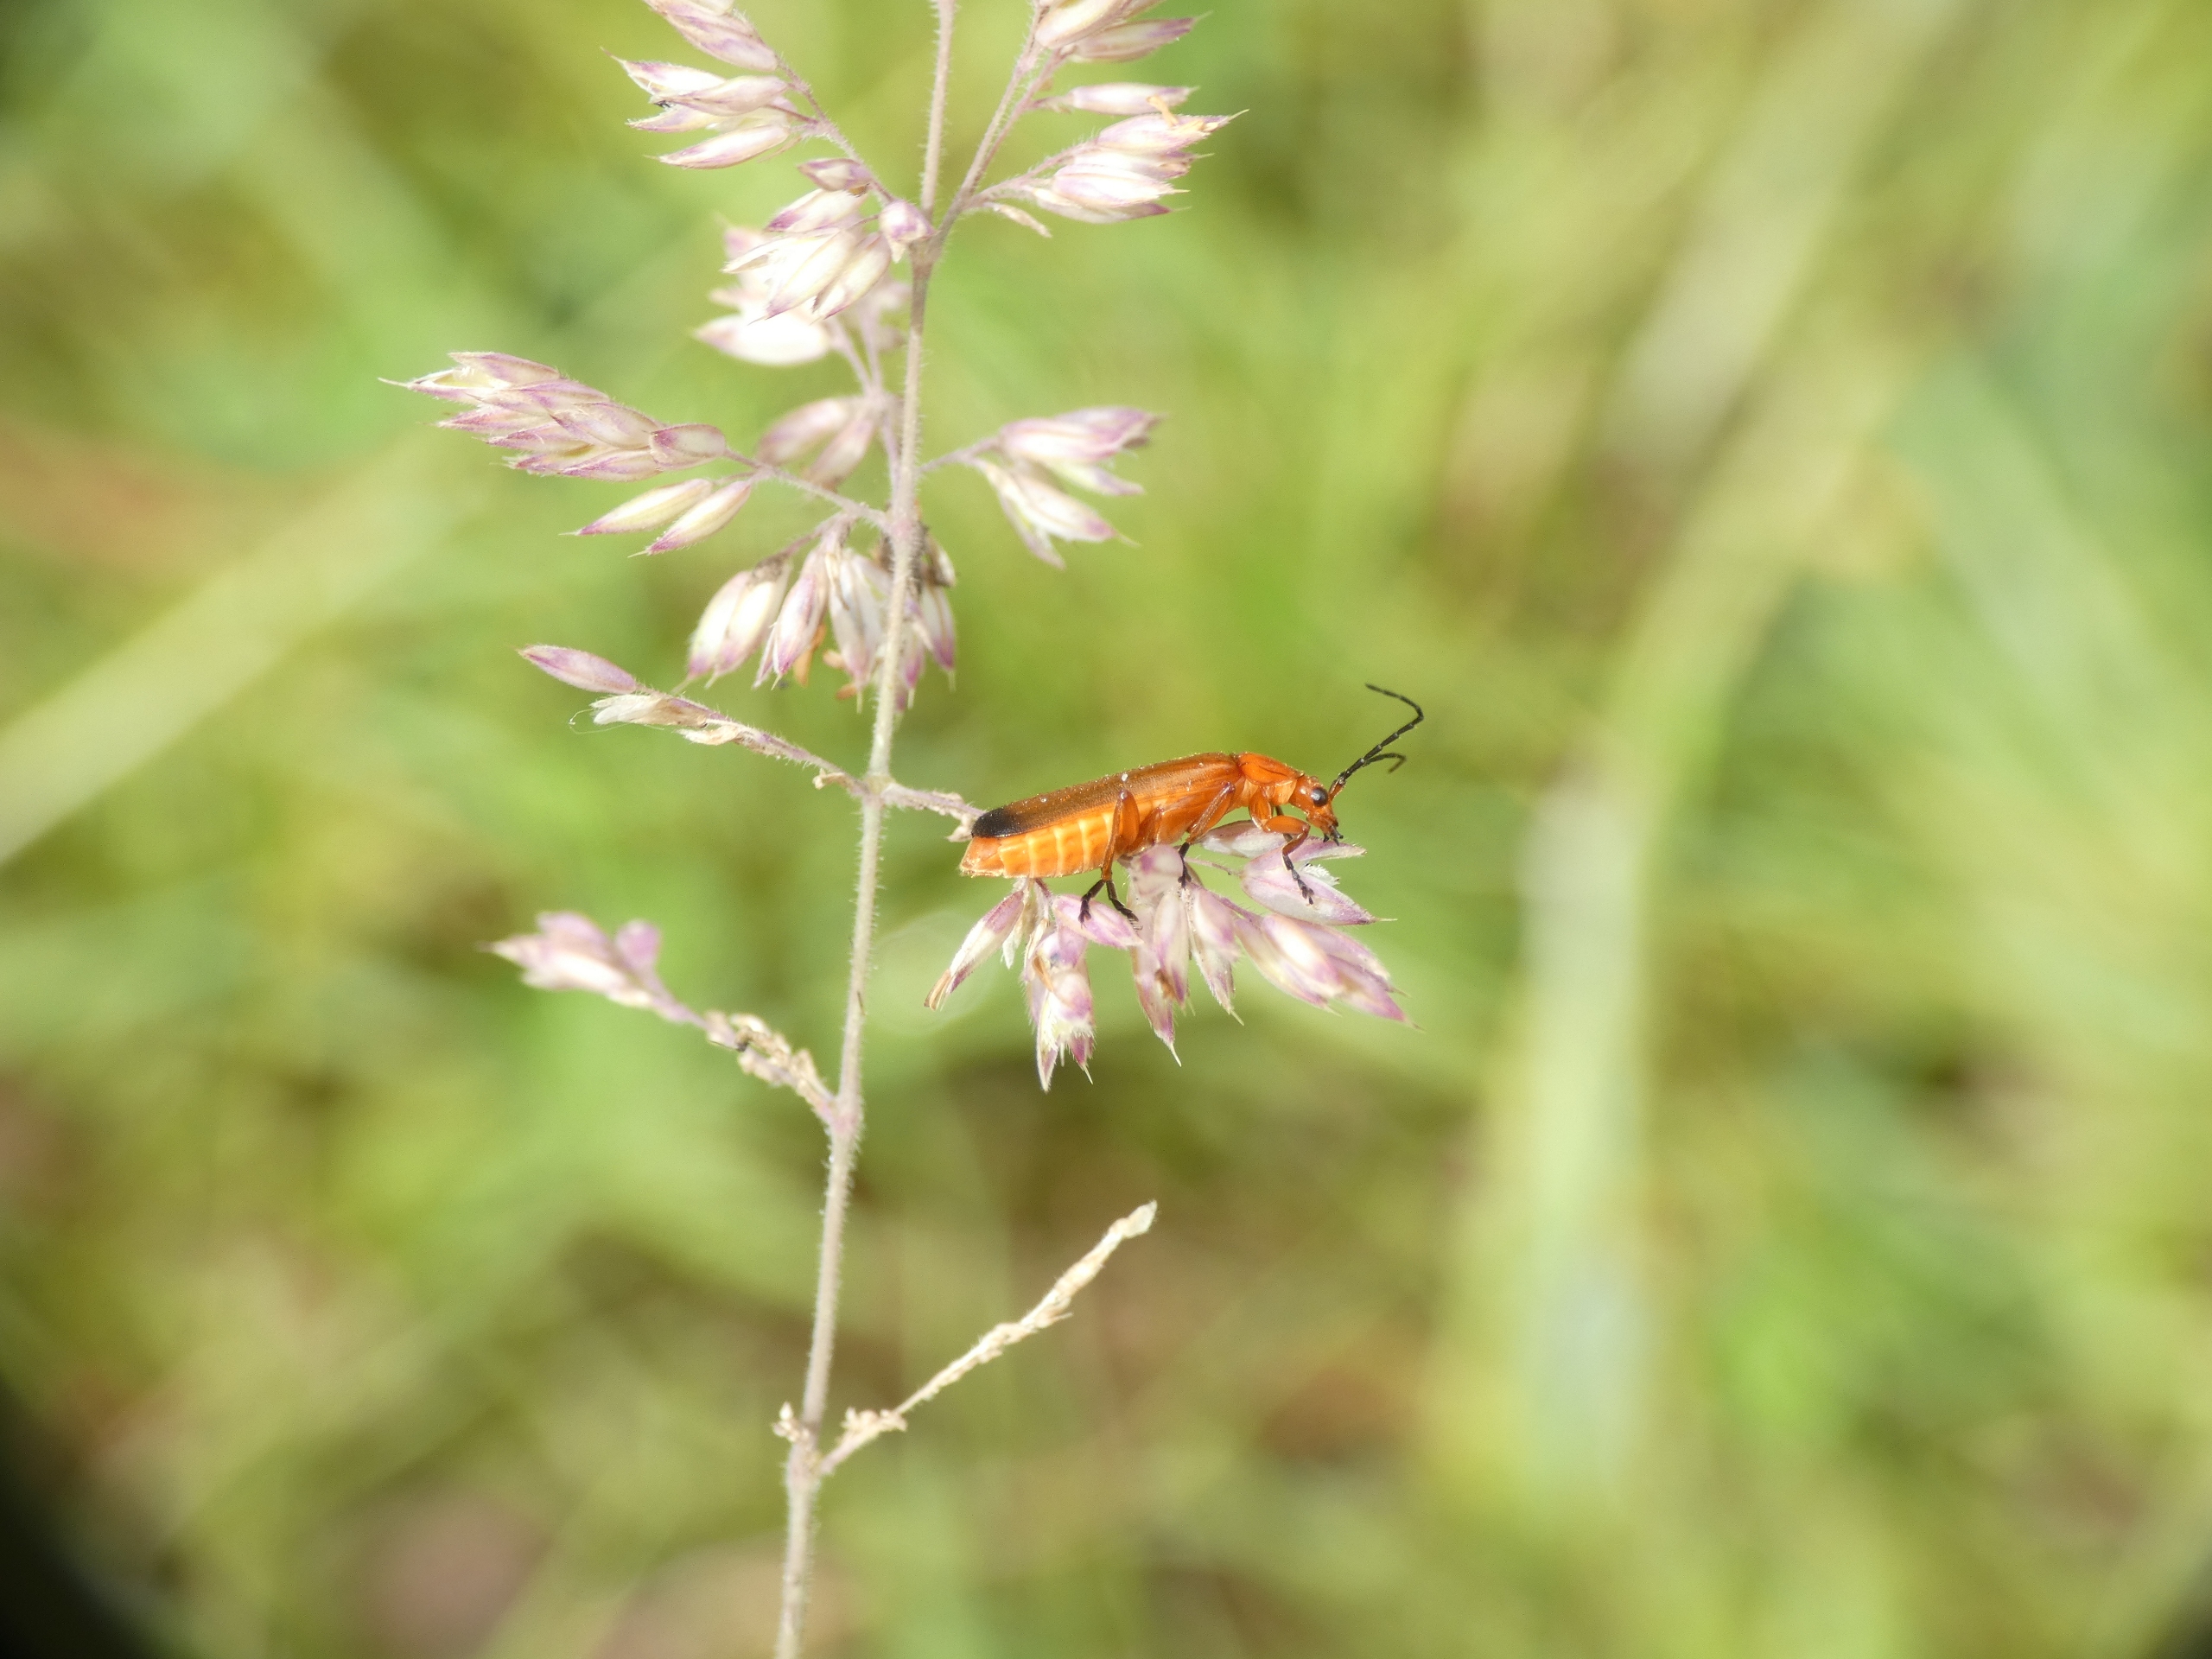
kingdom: Animalia
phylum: Arthropoda
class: Insecta
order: Coleoptera
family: Cantharidae
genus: Rhagonycha
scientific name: Rhagonycha fulva
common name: Præstebille
